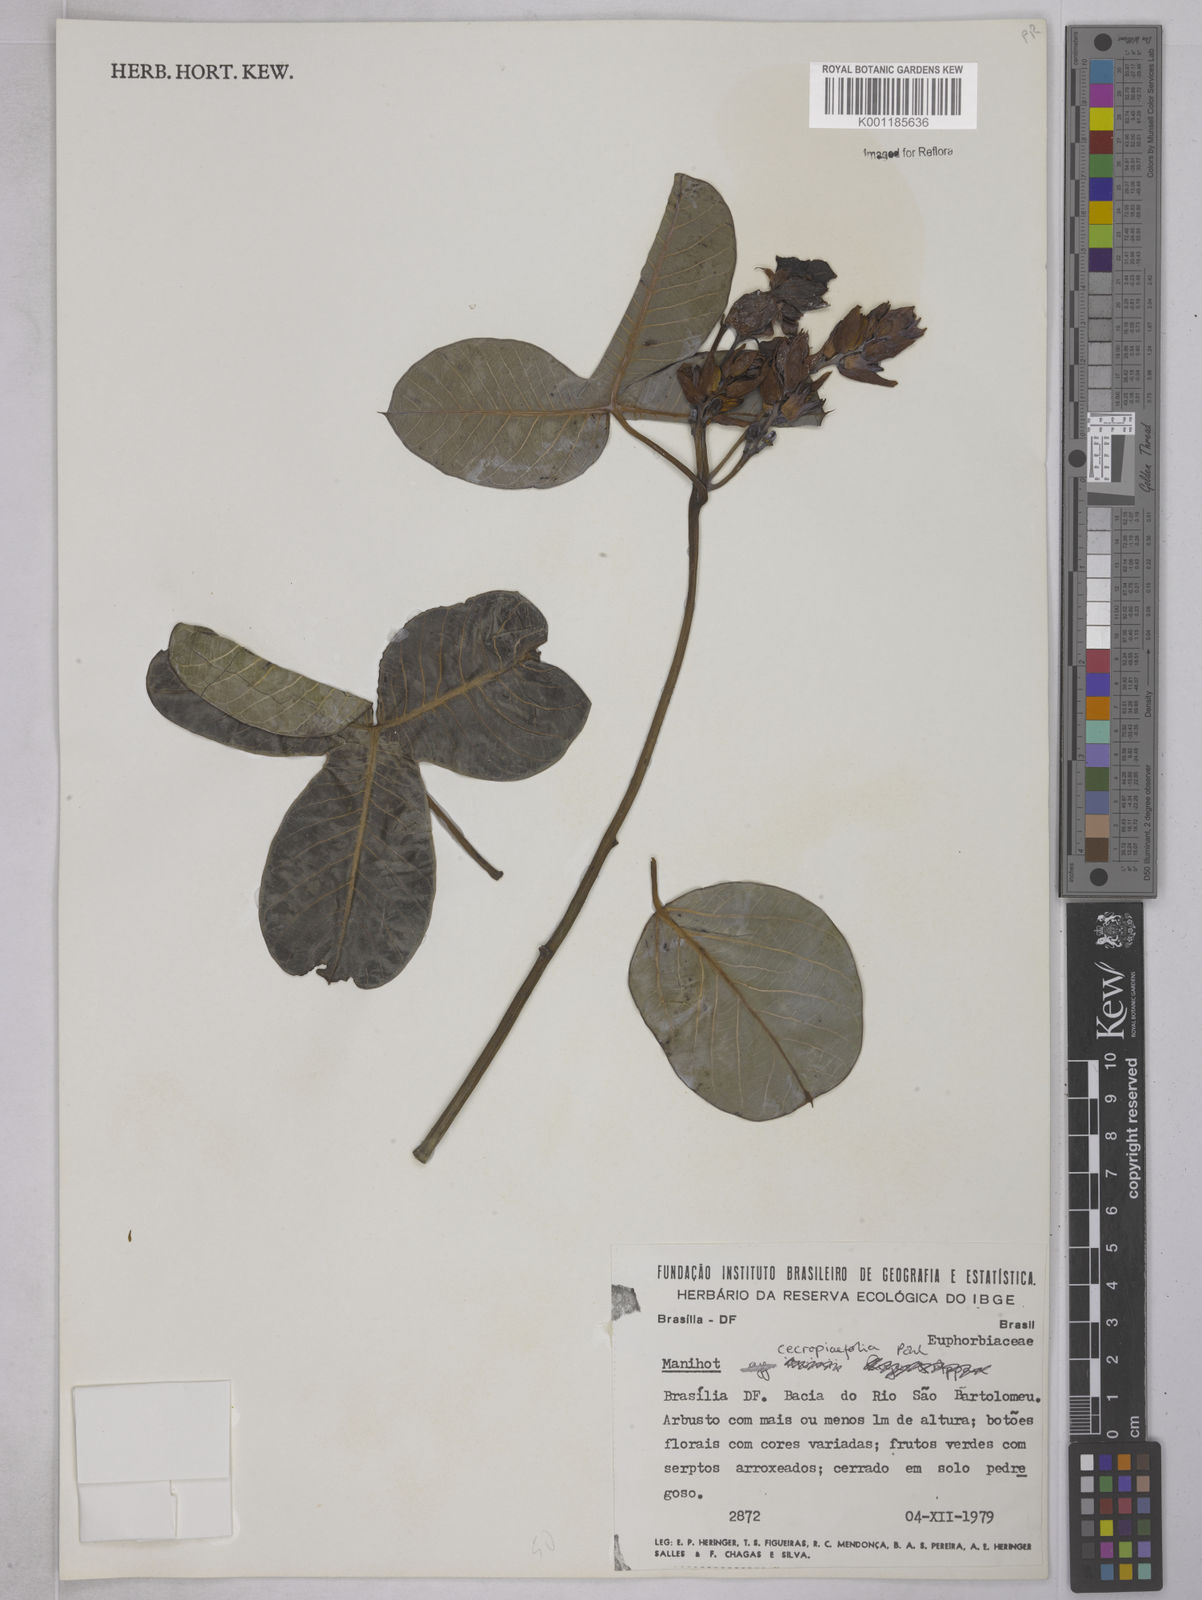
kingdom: Plantae
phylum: Tracheophyta
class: Magnoliopsida
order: Malpighiales
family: Euphorbiaceae
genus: Manihot
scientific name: Manihot cecropiifolia
